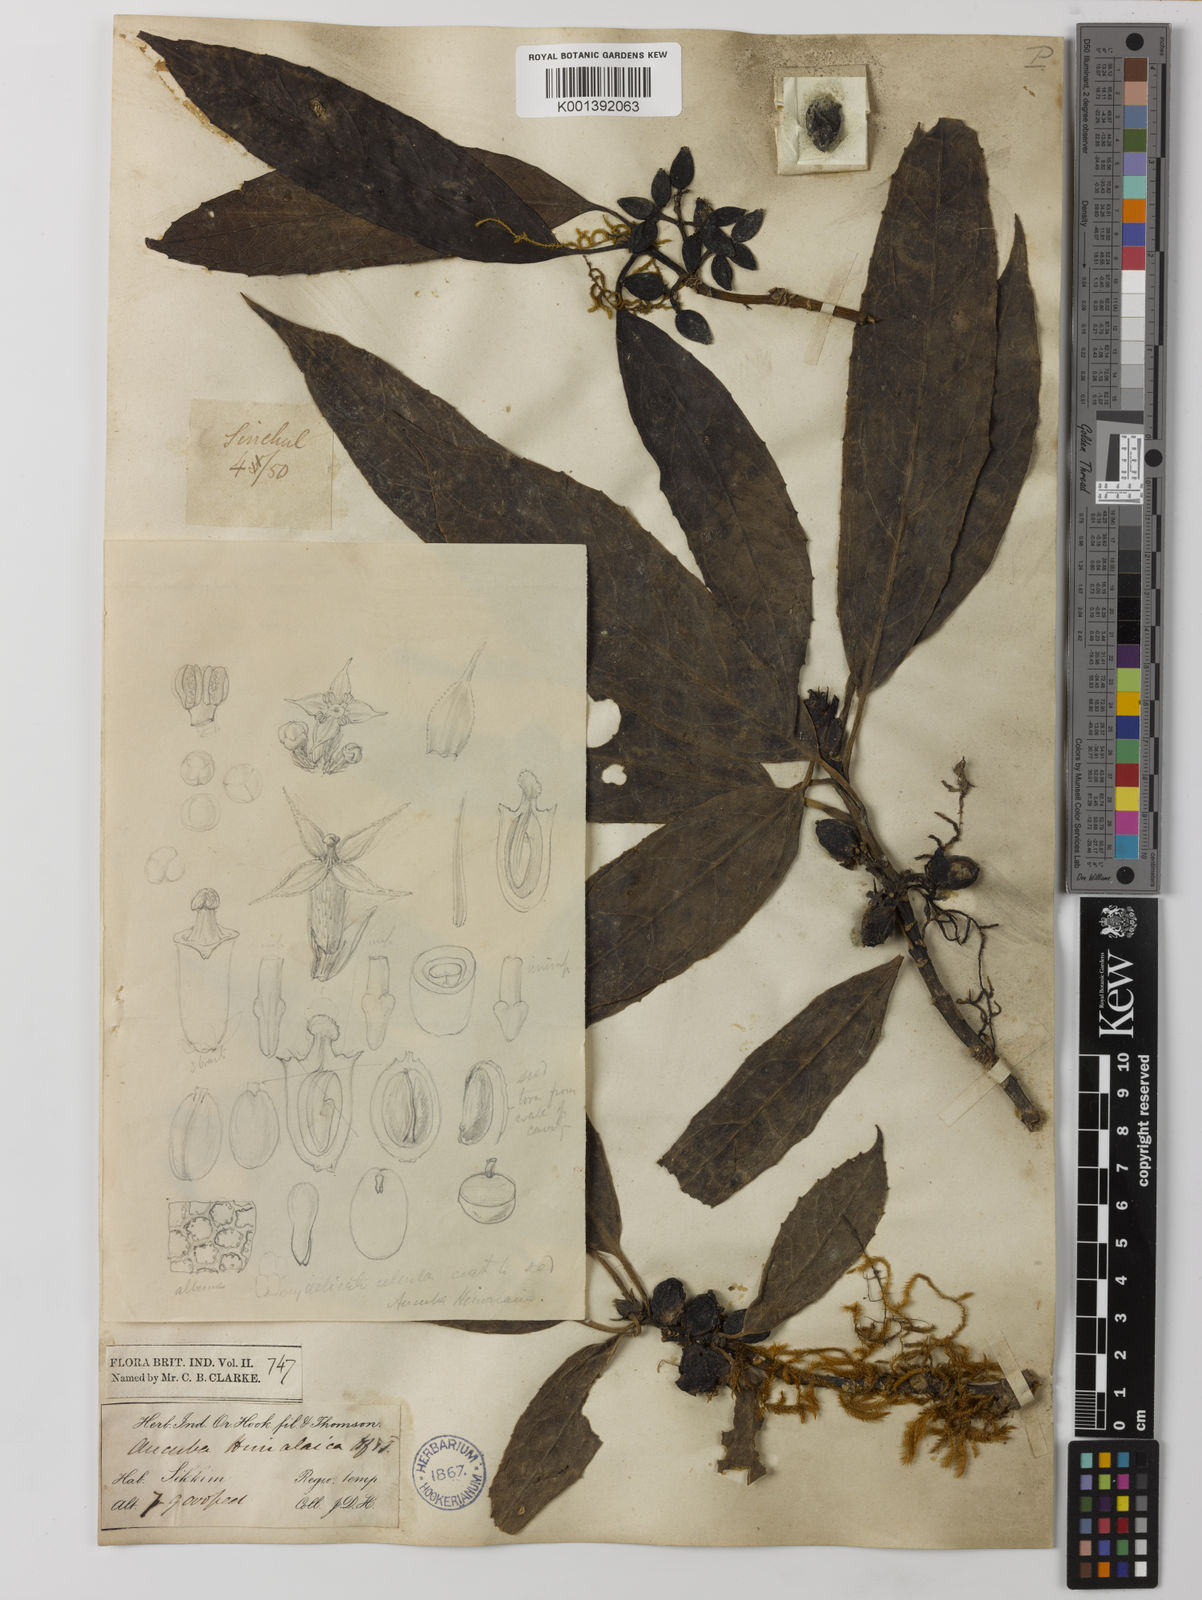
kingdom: Plantae
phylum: Tracheophyta
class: Magnoliopsida
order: Garryales
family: Garryaceae
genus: Aucuba
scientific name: Aucuba himalaica
